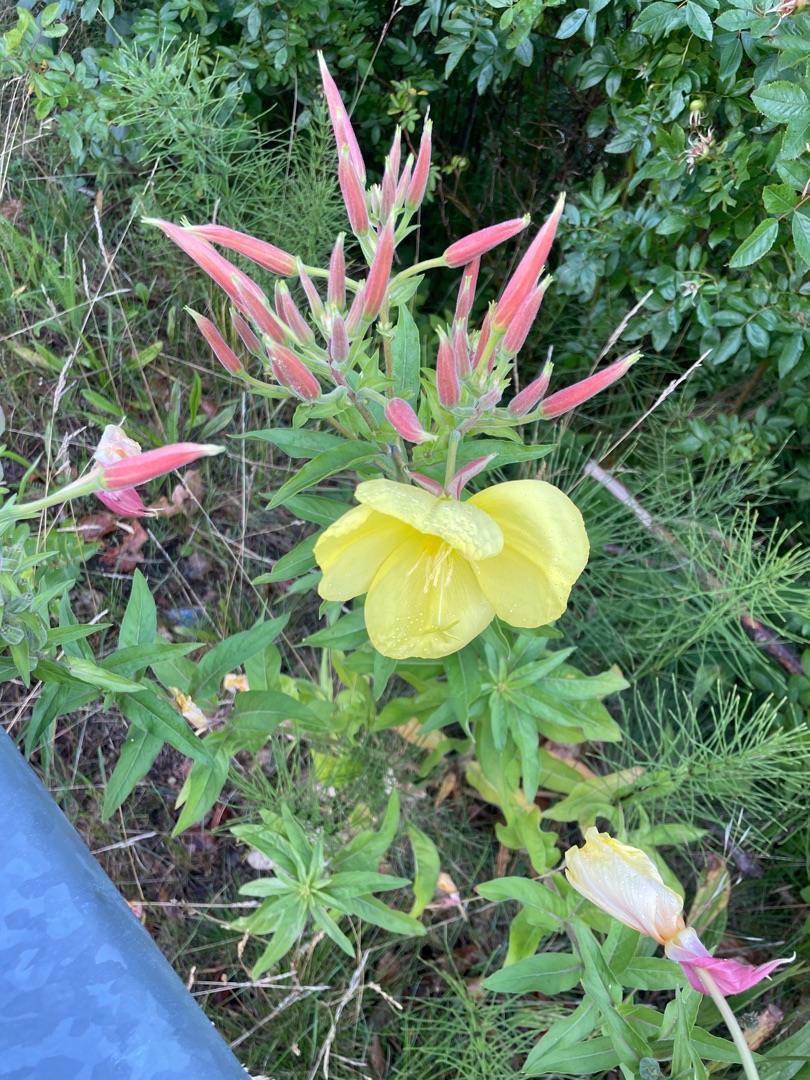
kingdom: Plantae
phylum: Tracheophyta
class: Magnoliopsida
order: Myrtales
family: Onagraceae
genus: Oenothera
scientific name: Oenothera glazioviana
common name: Kæmpe-natlys
